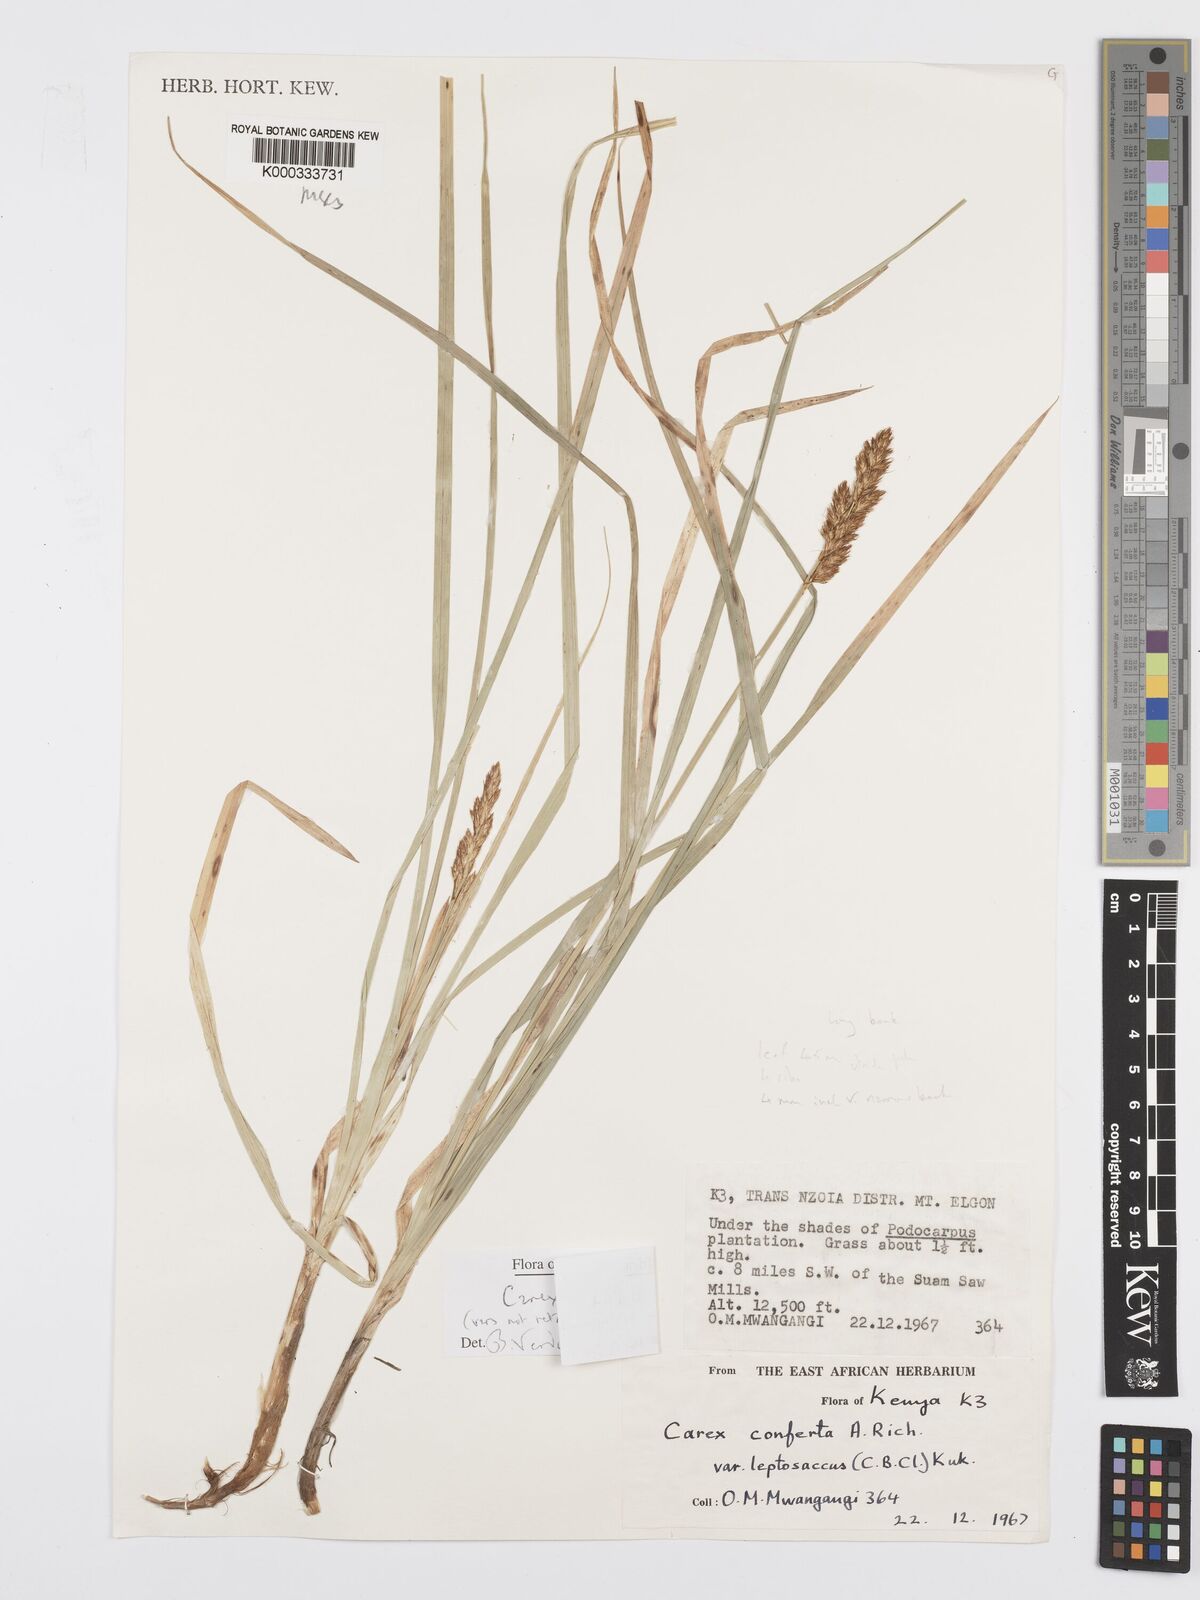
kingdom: Plantae
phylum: Tracheophyta
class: Liliopsida
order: Poales
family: Cyperaceae
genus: Carex
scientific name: Carex conferta
